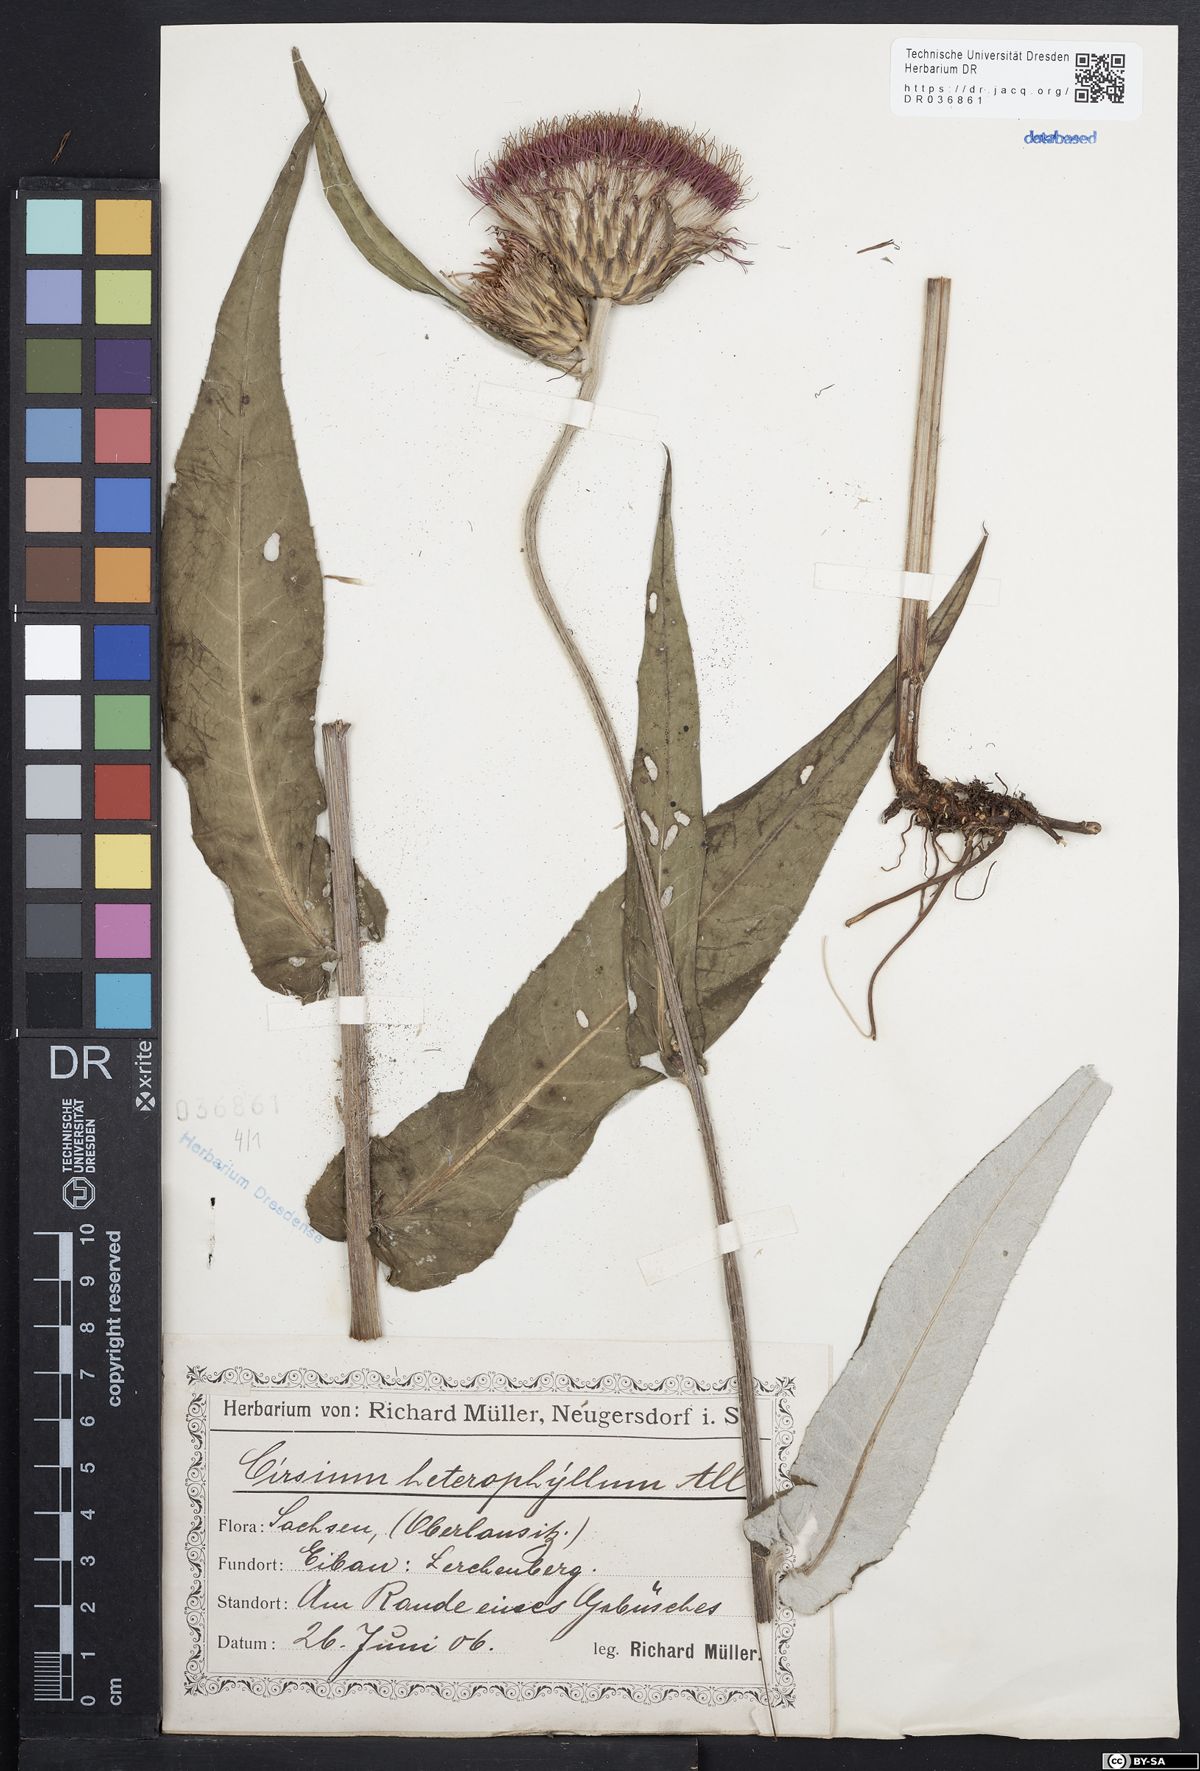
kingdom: Plantae
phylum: Tracheophyta
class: Magnoliopsida
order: Asterales
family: Asteraceae
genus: Cirsium
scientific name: Cirsium helenioides
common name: Melancholy thistle
